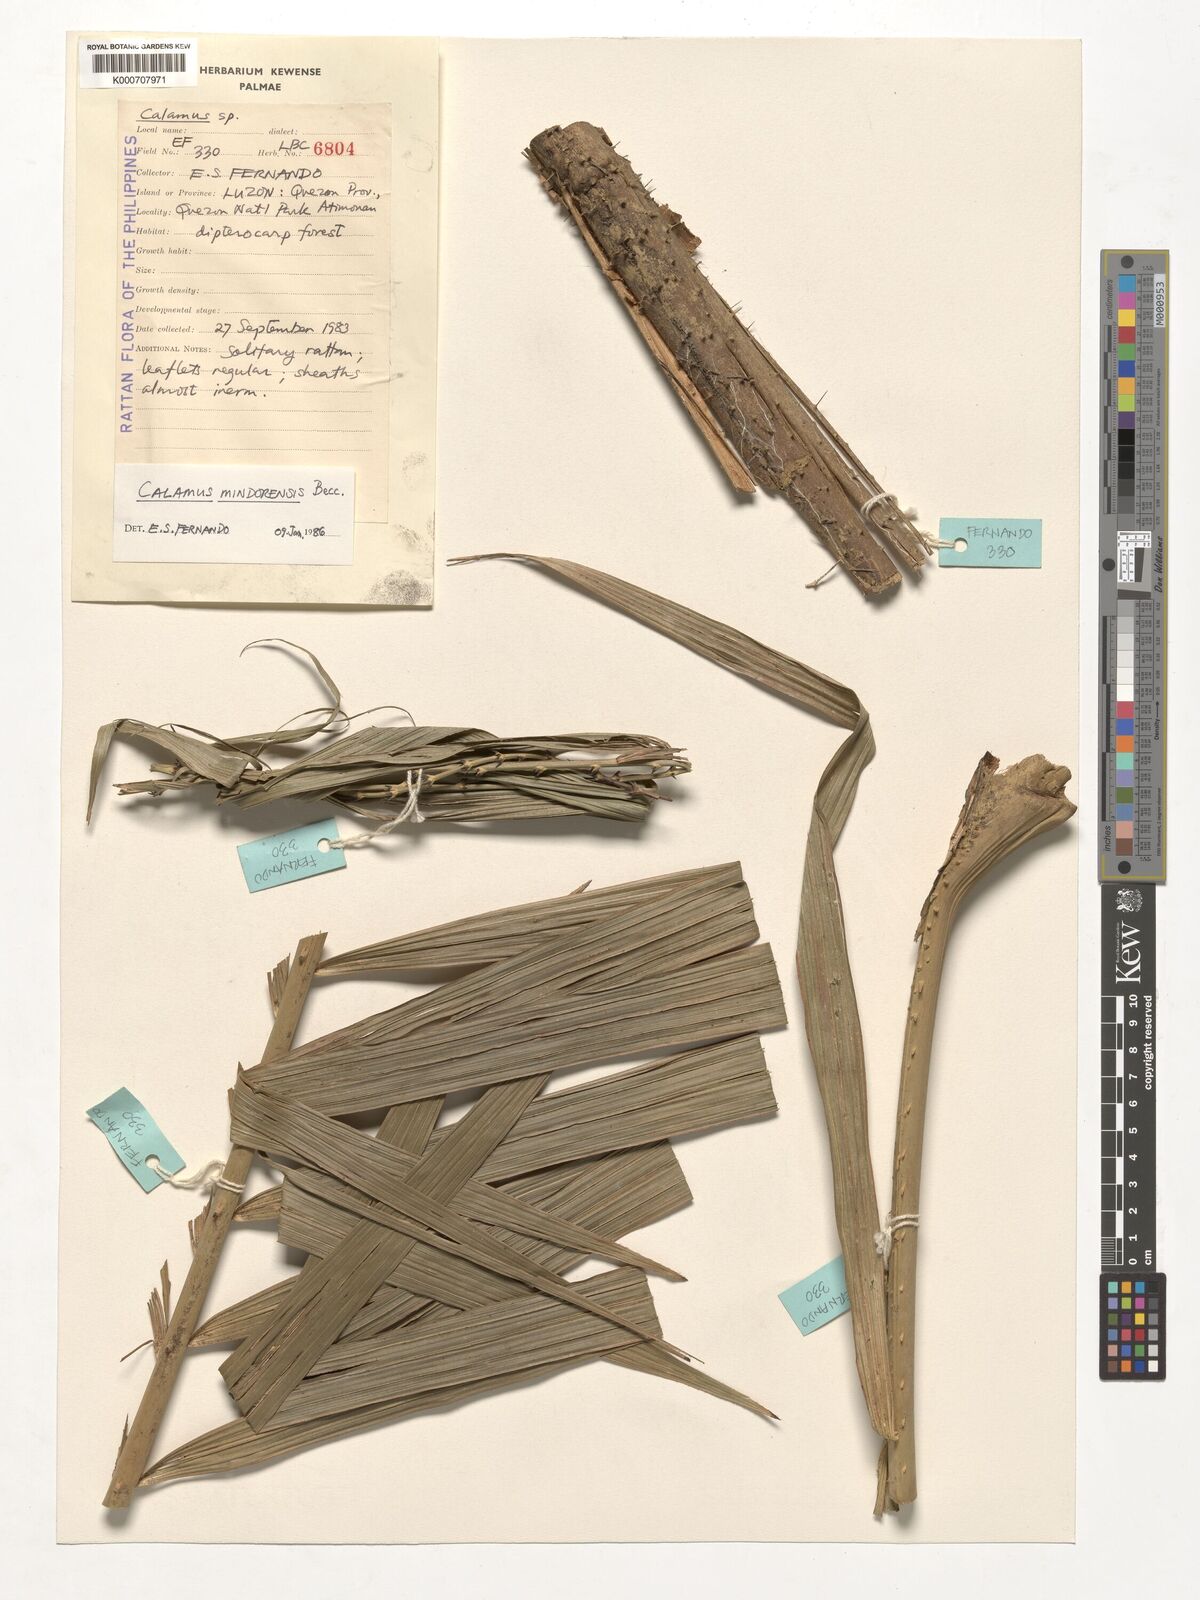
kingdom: Plantae
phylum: Tracheophyta
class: Liliopsida
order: Arecales
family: Arecaceae
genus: Calamus
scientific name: Calamus moseleyanus
